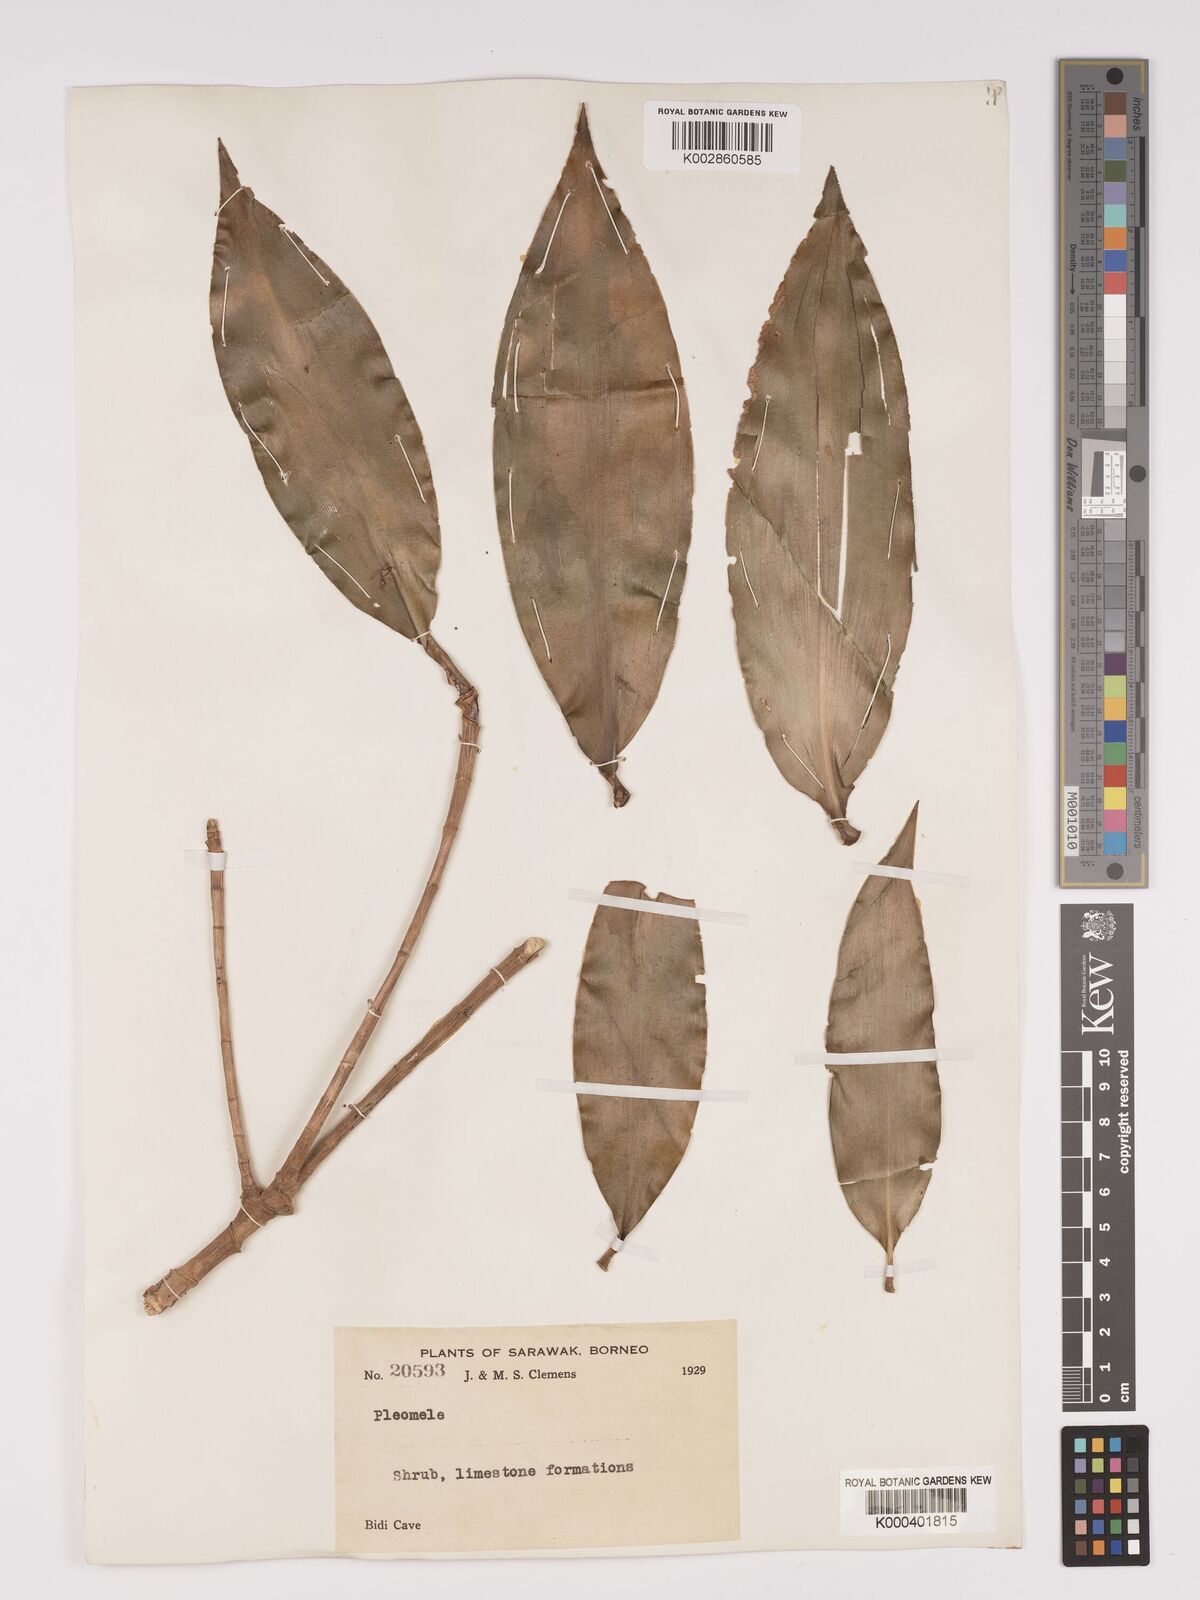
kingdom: Plantae
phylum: Tracheophyta
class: Liliopsida
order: Asparagales
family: Asparagaceae
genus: Dracaena
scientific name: Dracaena
